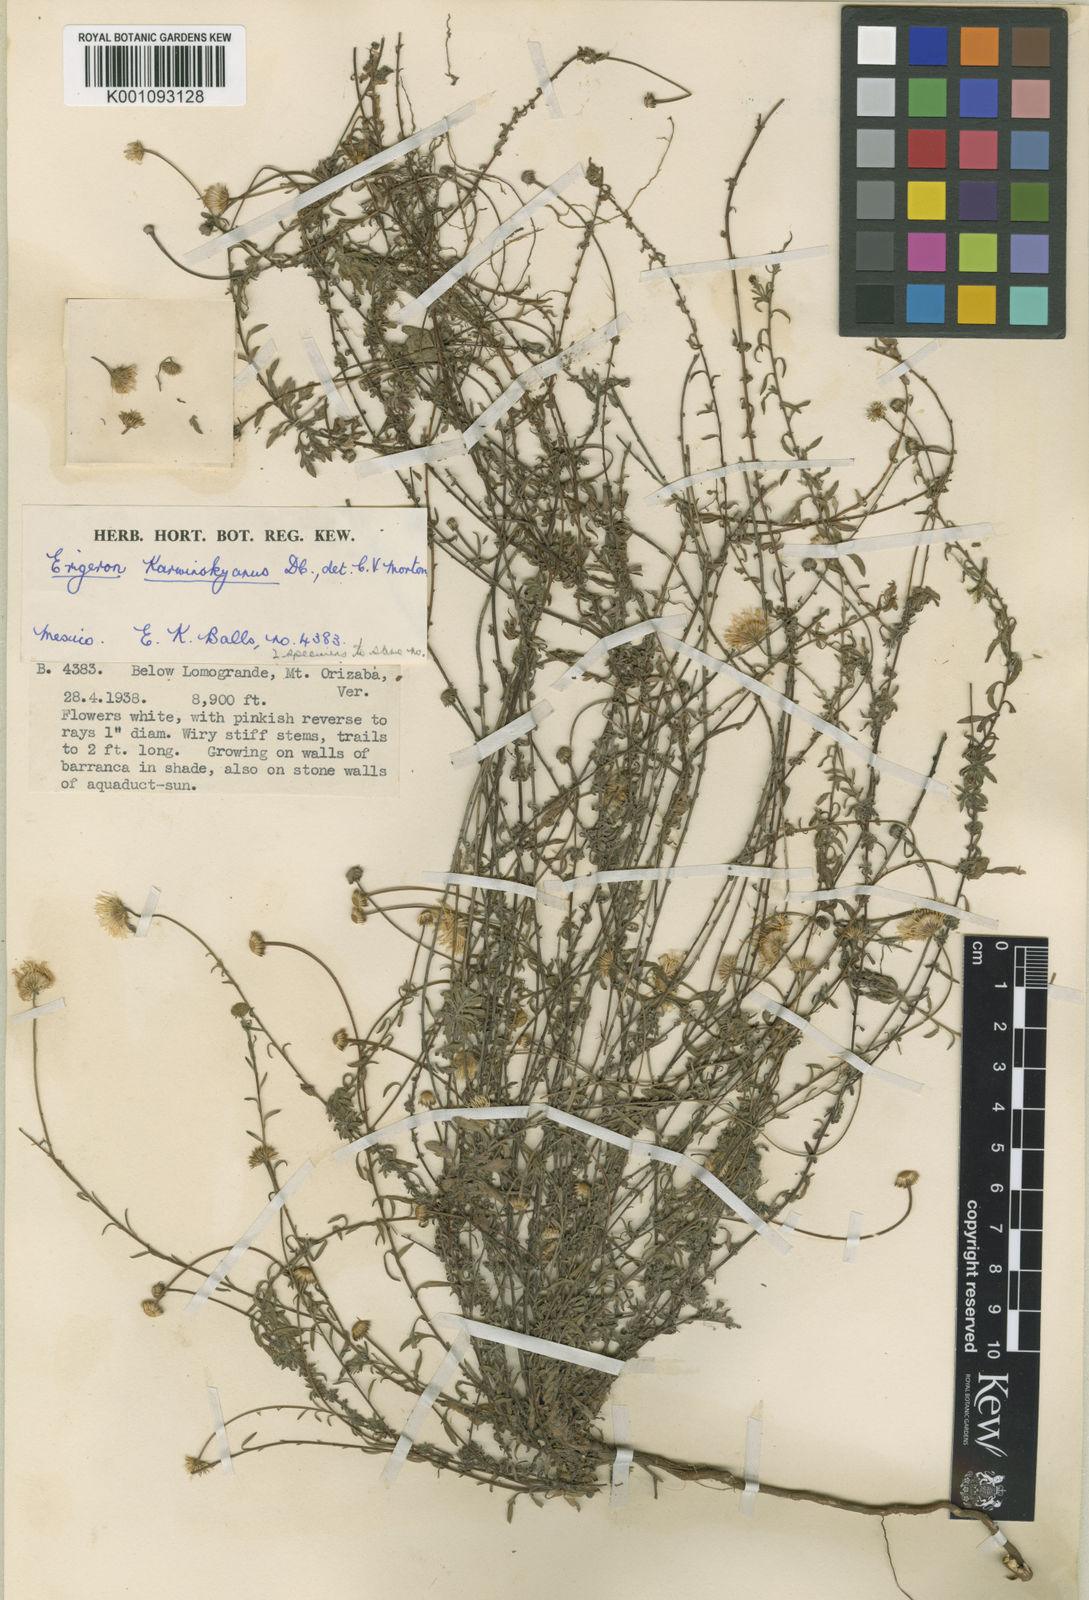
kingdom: Plantae
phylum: Tracheophyta
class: Magnoliopsida
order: Asterales
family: Asteraceae
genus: Erigeron
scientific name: Erigeron karvinskianus
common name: Mexican fleabane
